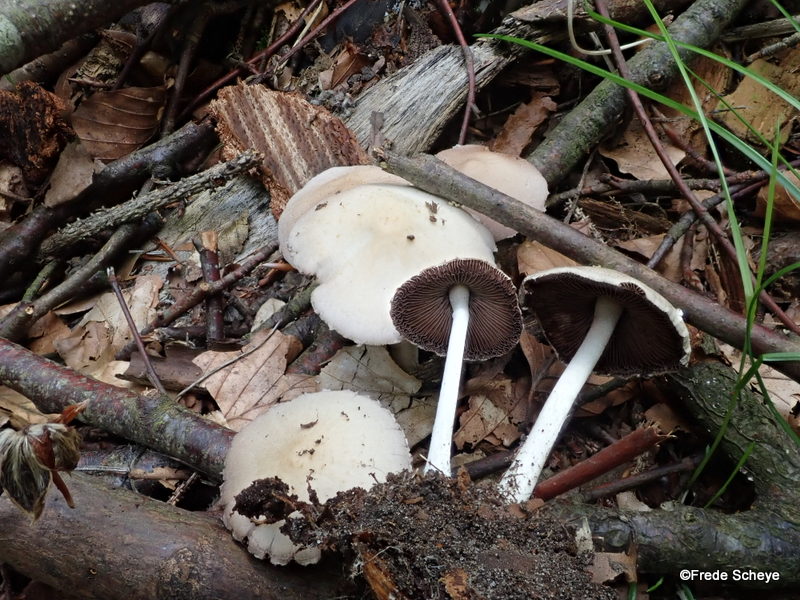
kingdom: Fungi
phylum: Basidiomycota
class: Agaricomycetes
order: Agaricales
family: Psathyrellaceae
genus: Candolleomyces
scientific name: Candolleomyces candolleanus
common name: Candolles mørkhat
